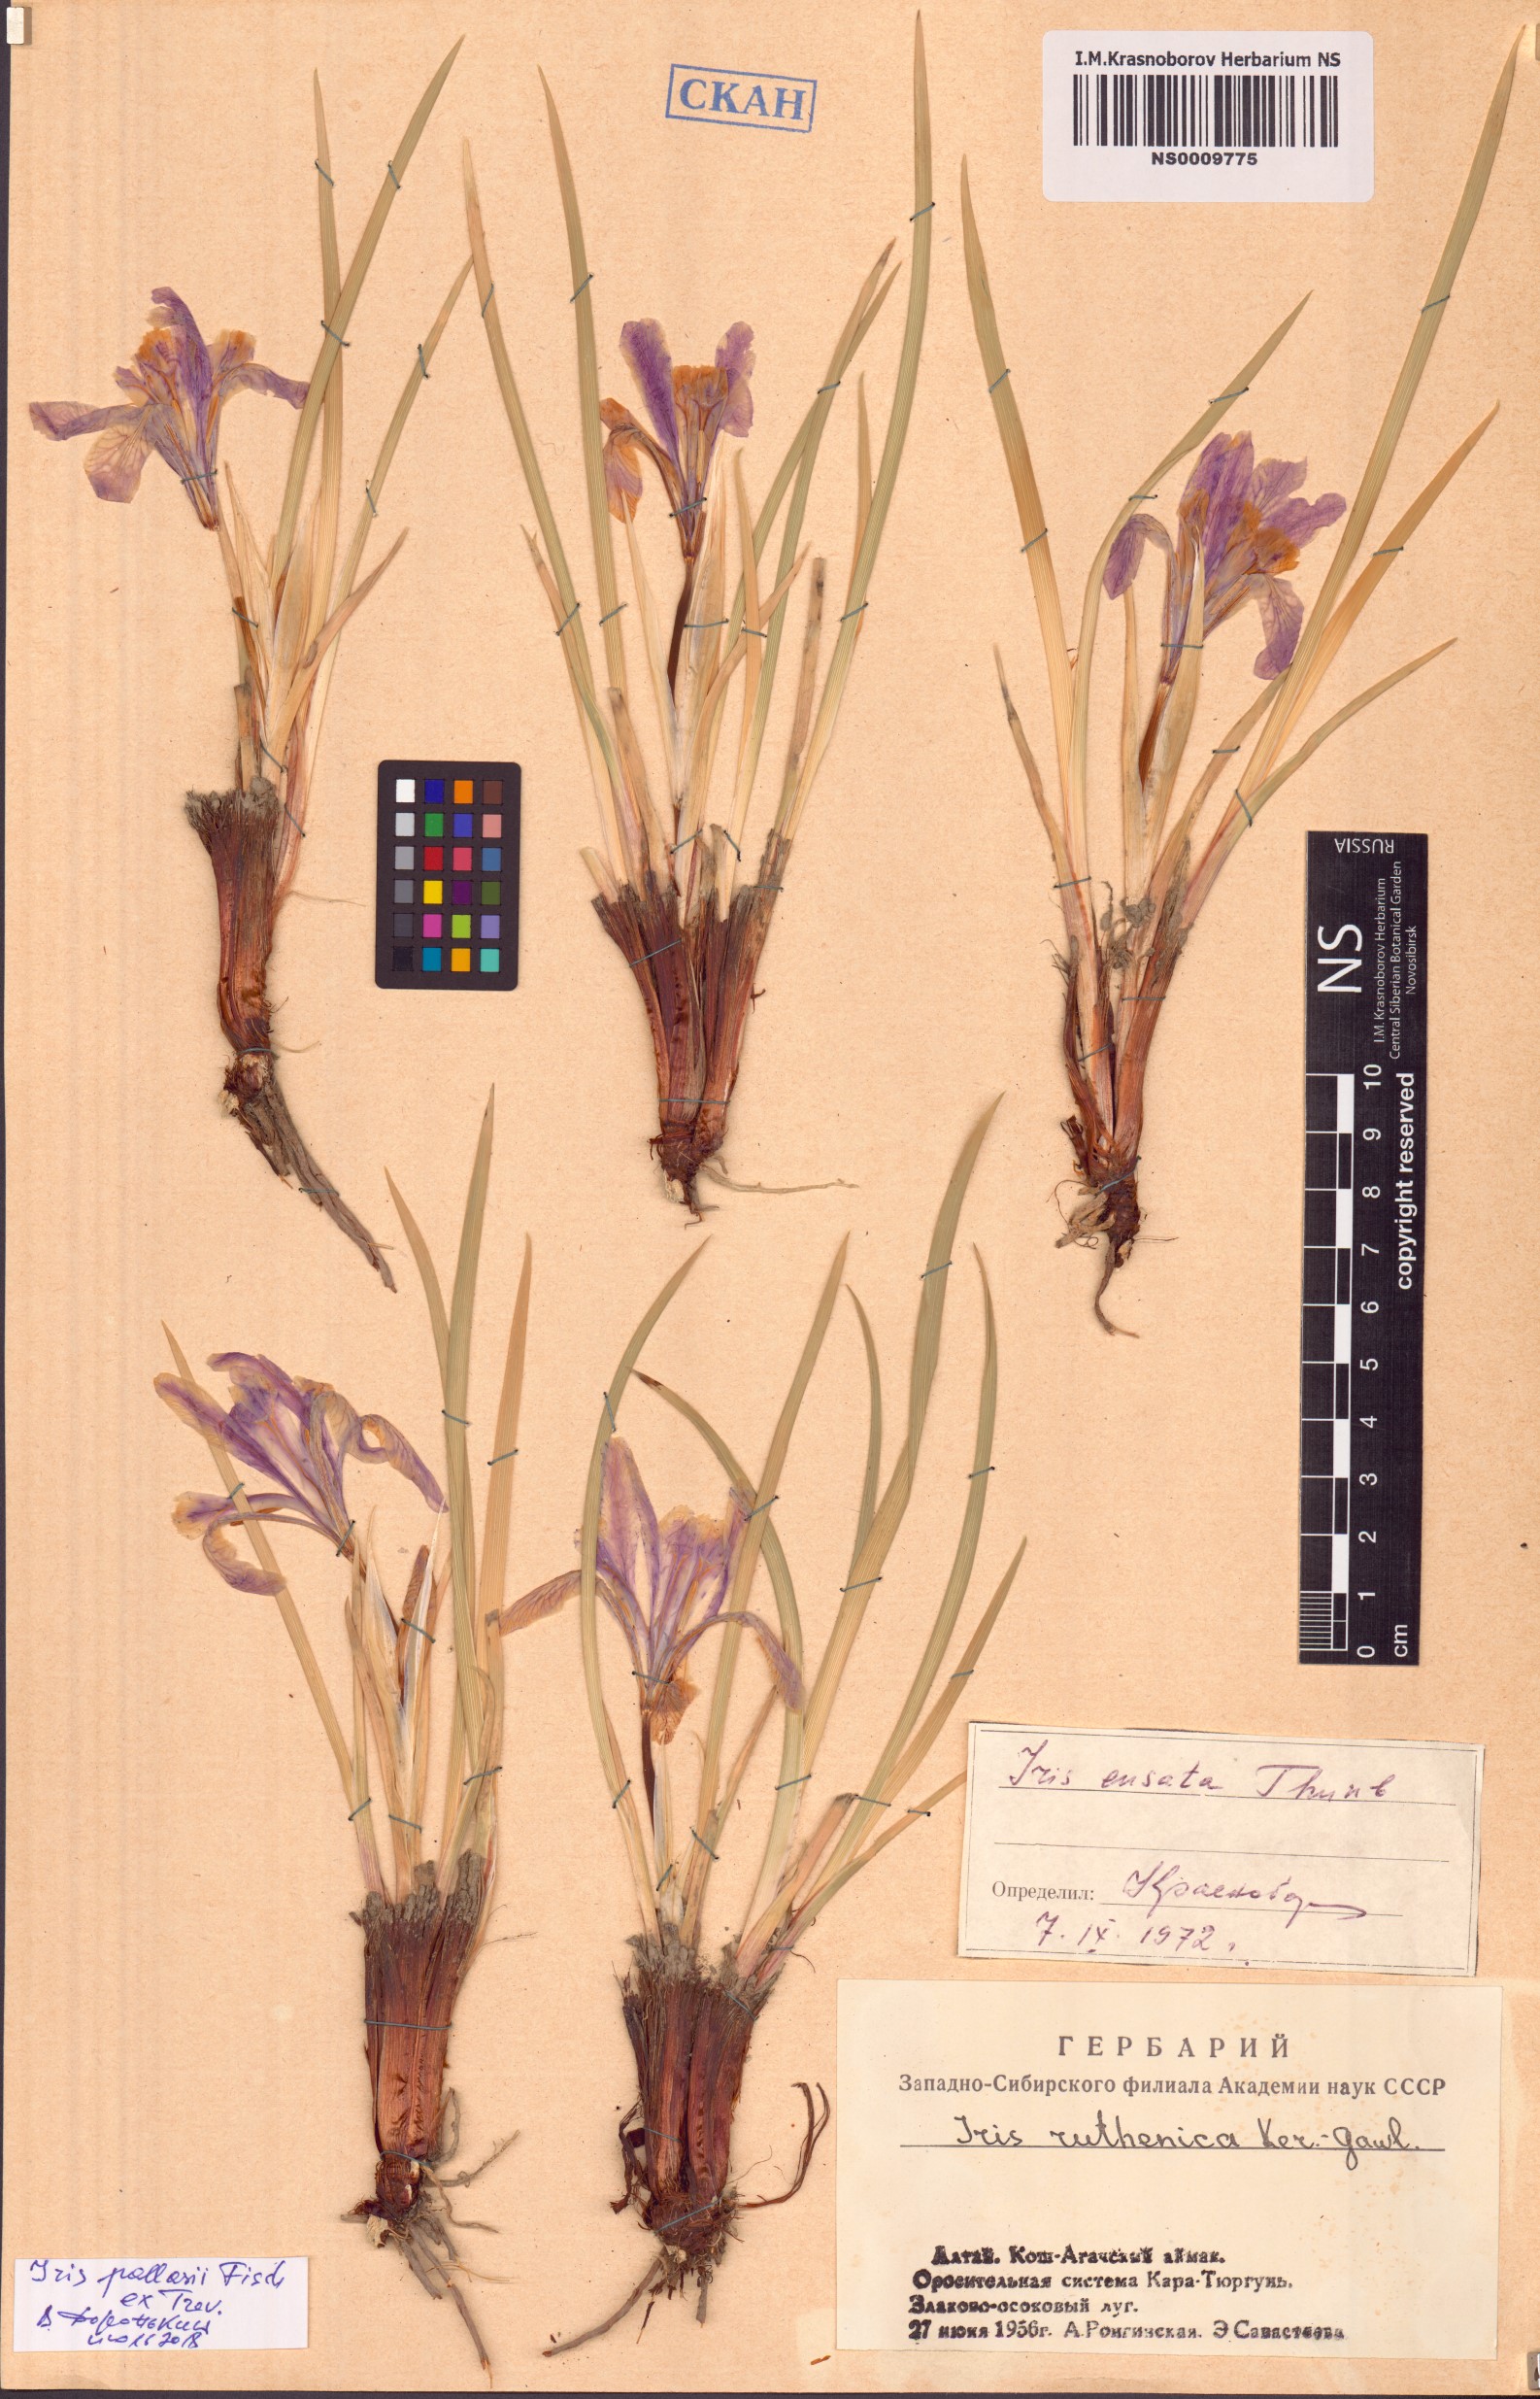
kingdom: Plantae
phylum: Tracheophyta
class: Liliopsida
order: Asparagales
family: Iridaceae
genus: Iris
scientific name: Iris lactea
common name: White-flower chinese iris
